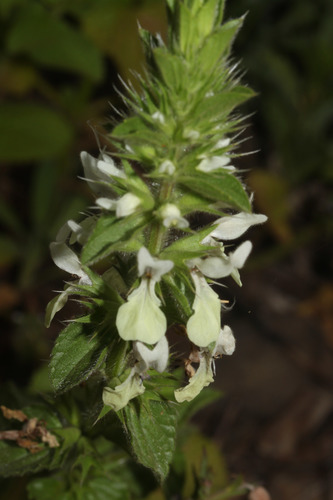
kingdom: Plantae
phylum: Tracheophyta
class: Magnoliopsida
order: Lamiales
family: Lamiaceae
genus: Stachys
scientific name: Stachys ocymastrum
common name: Italian hedgenettle
